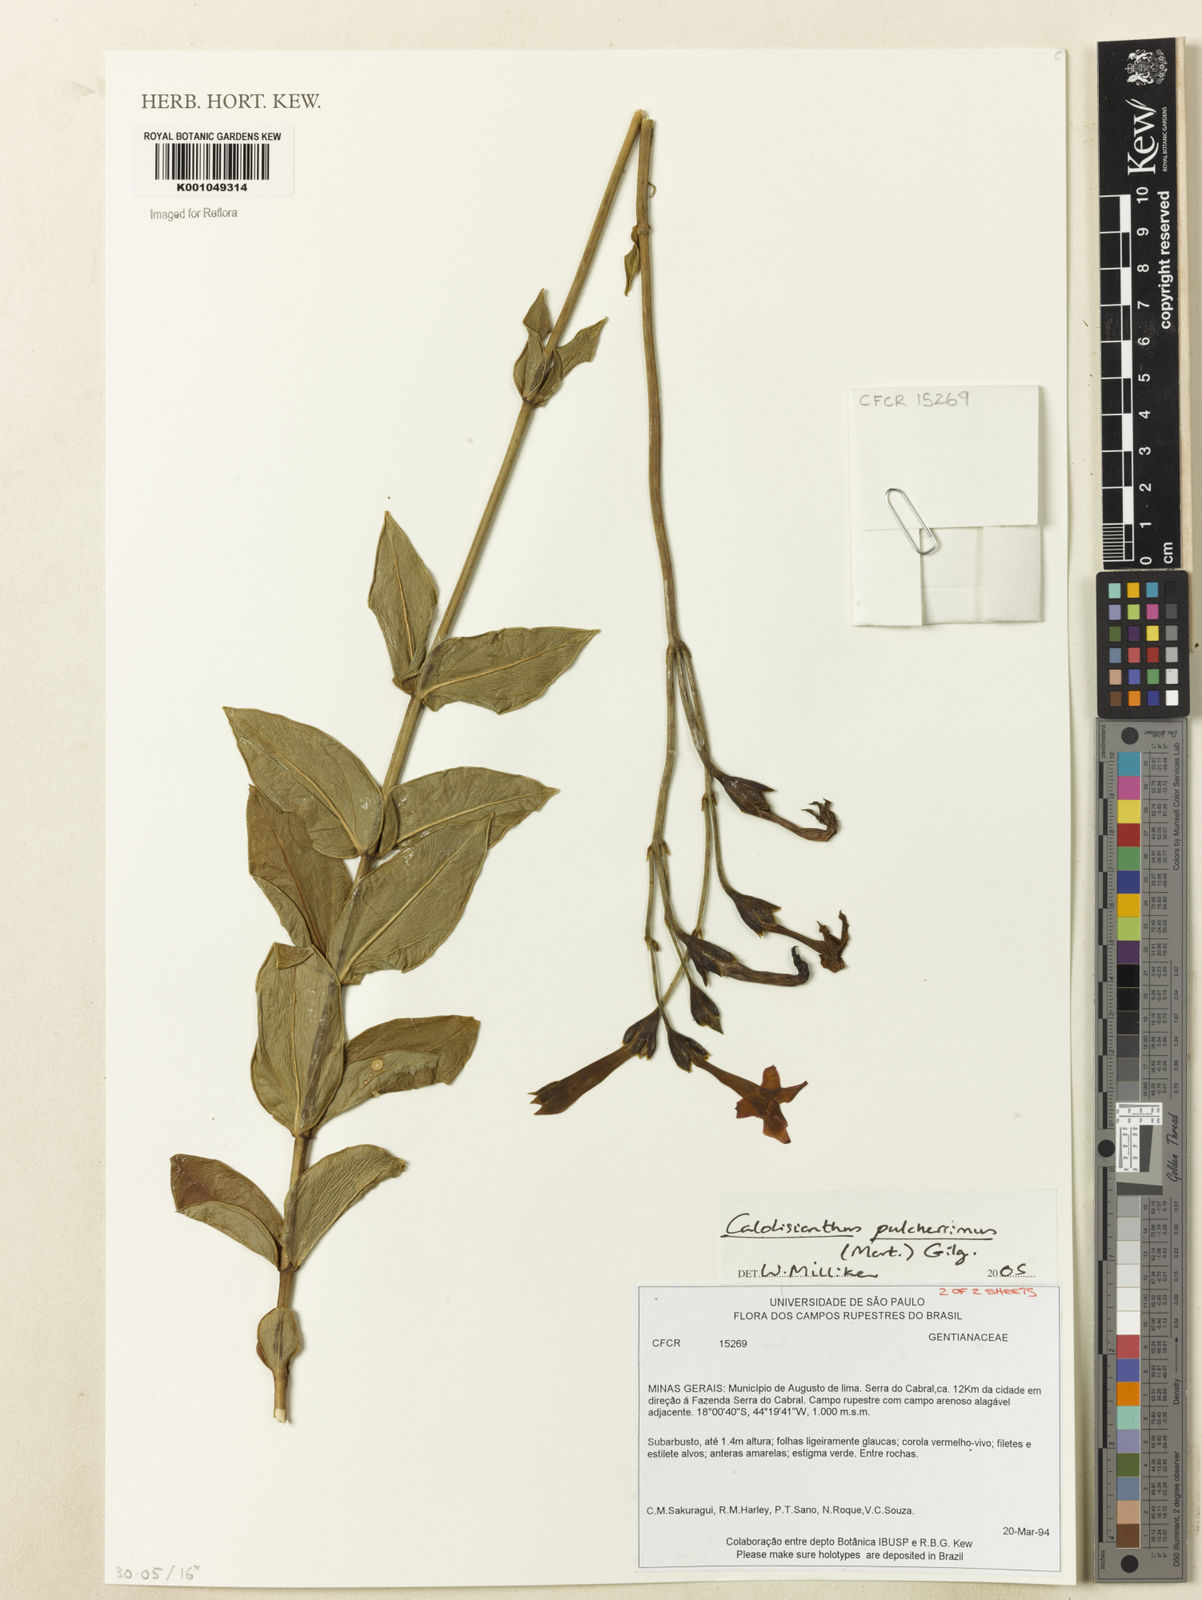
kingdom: Plantae
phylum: Tracheophyta
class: Magnoliopsida
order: Gentianales
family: Gentianaceae
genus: Calolisianthus
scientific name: Calolisianthus pulcherrimus
